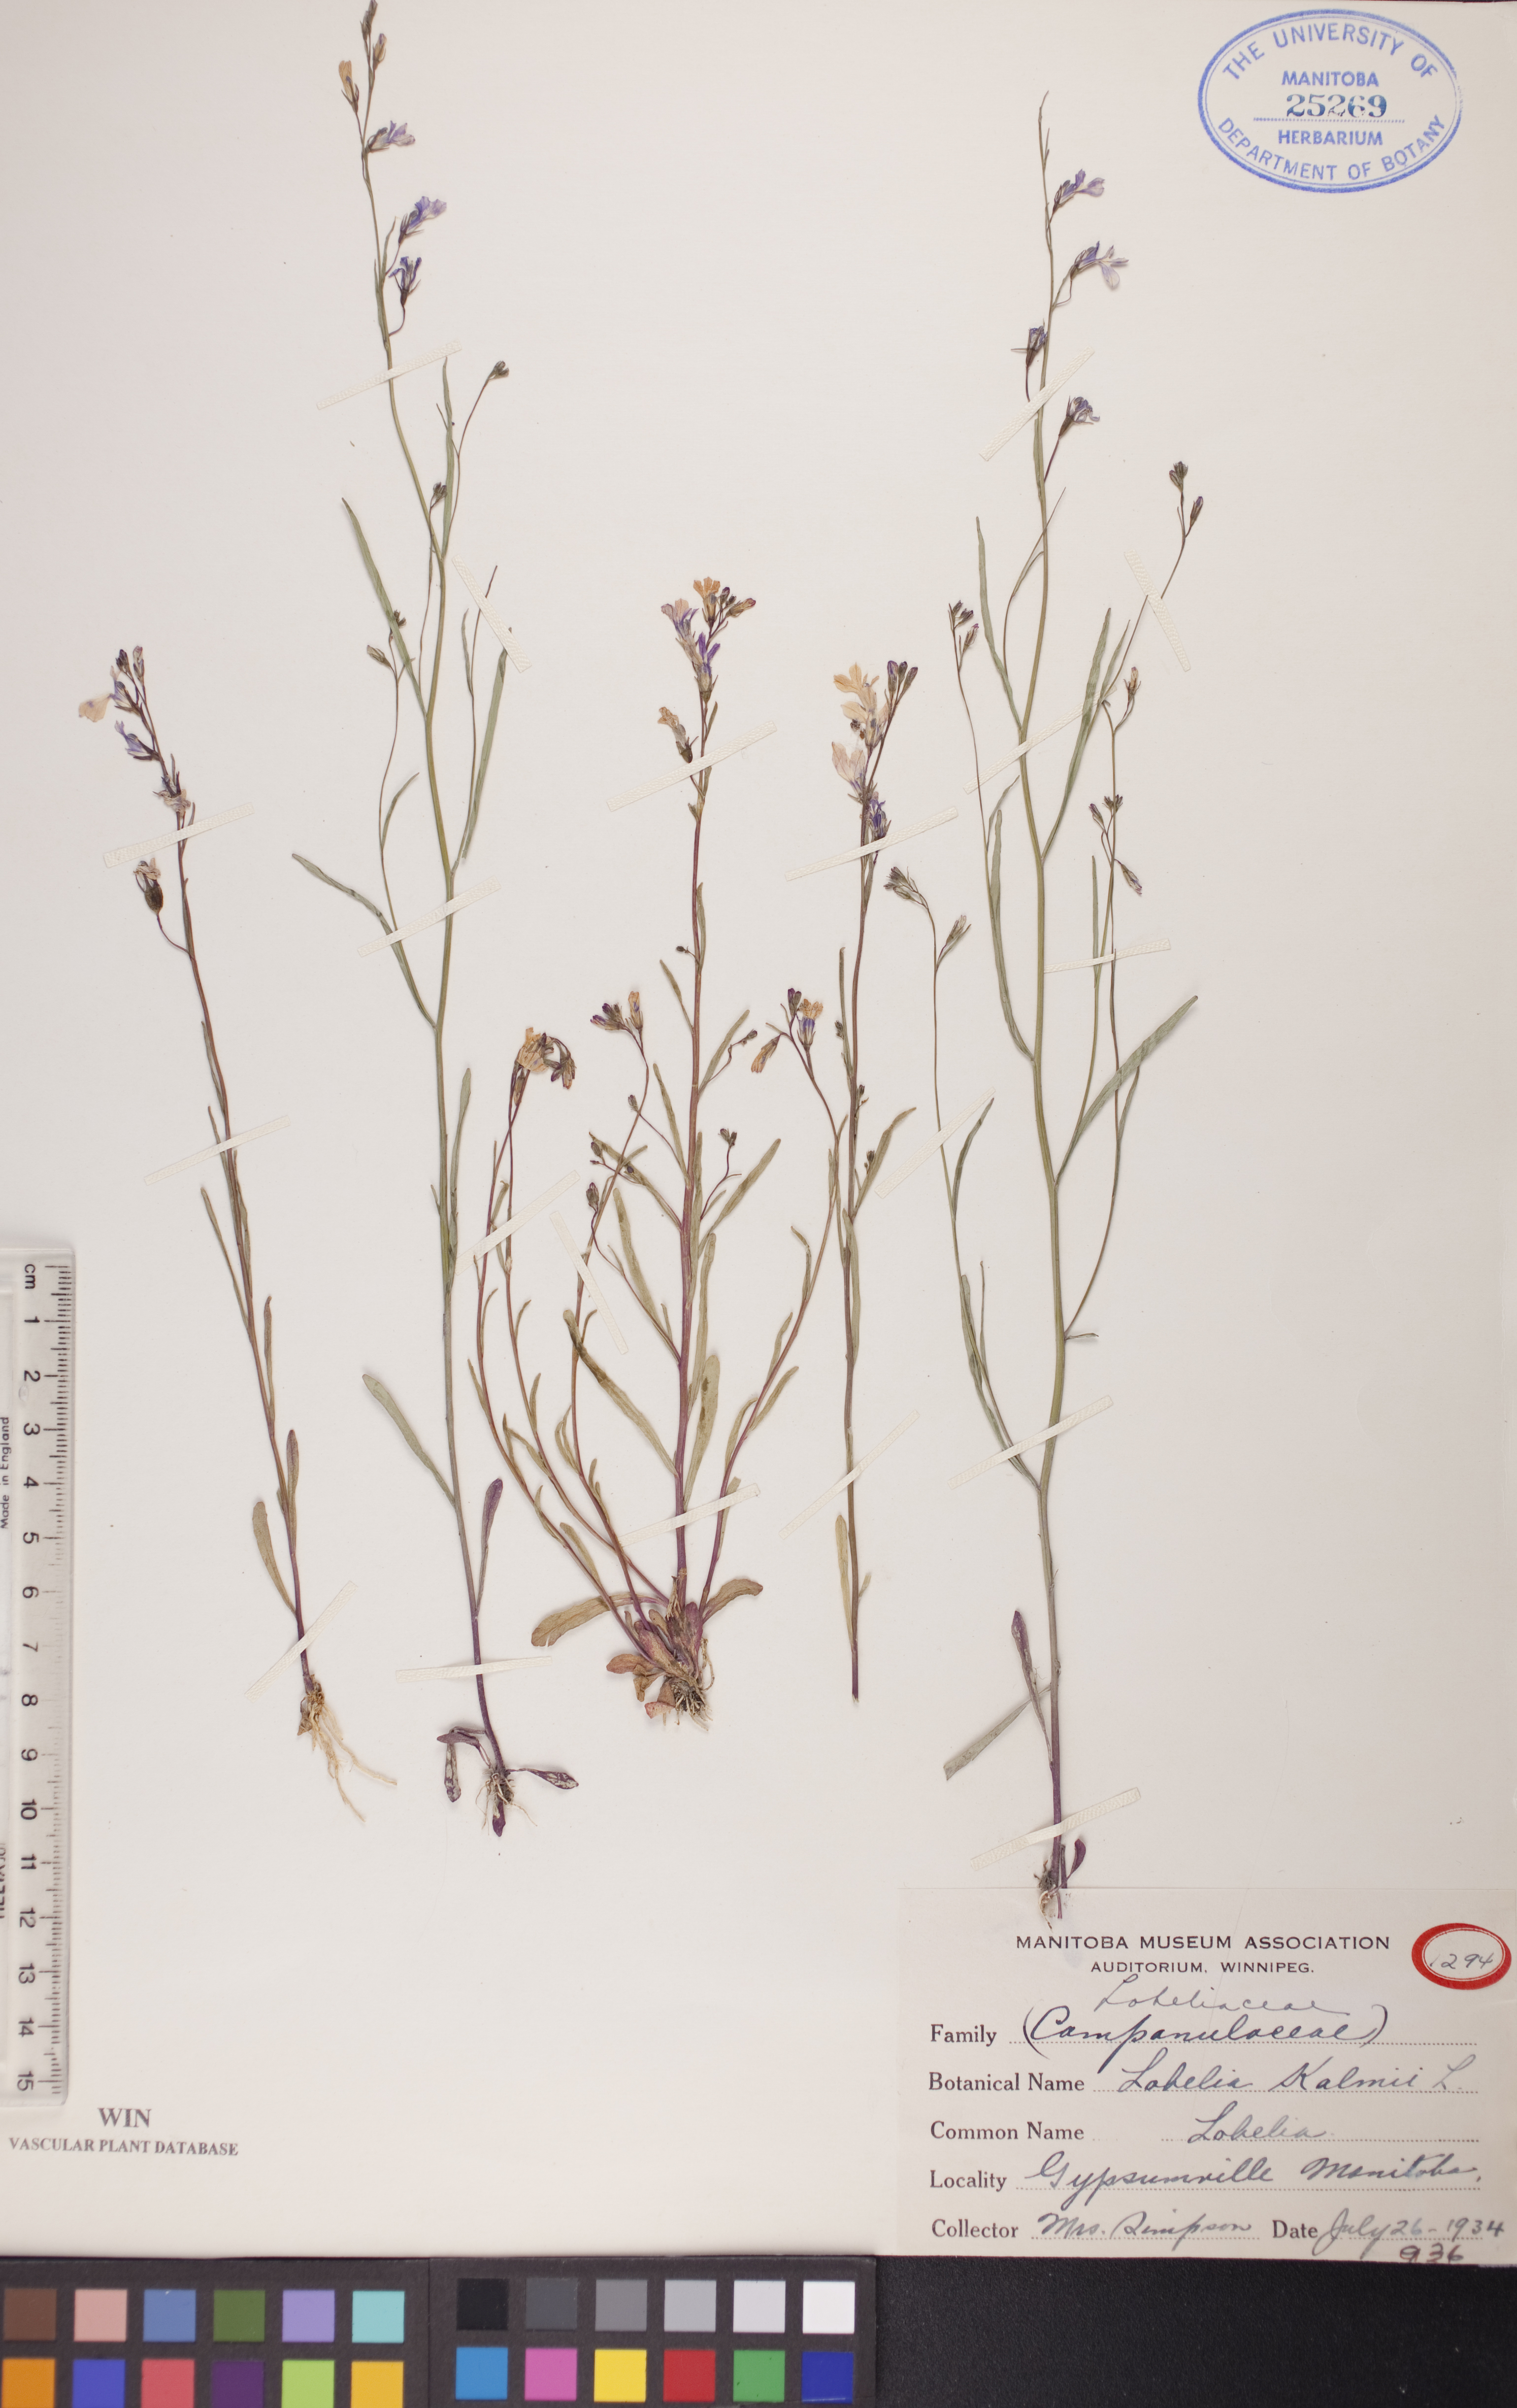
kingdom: Plantae
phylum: Tracheophyta
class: Magnoliopsida
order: Asterales
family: Campanulaceae
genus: Lobelia
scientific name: Lobelia kalmii
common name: Kalm's lobelia
